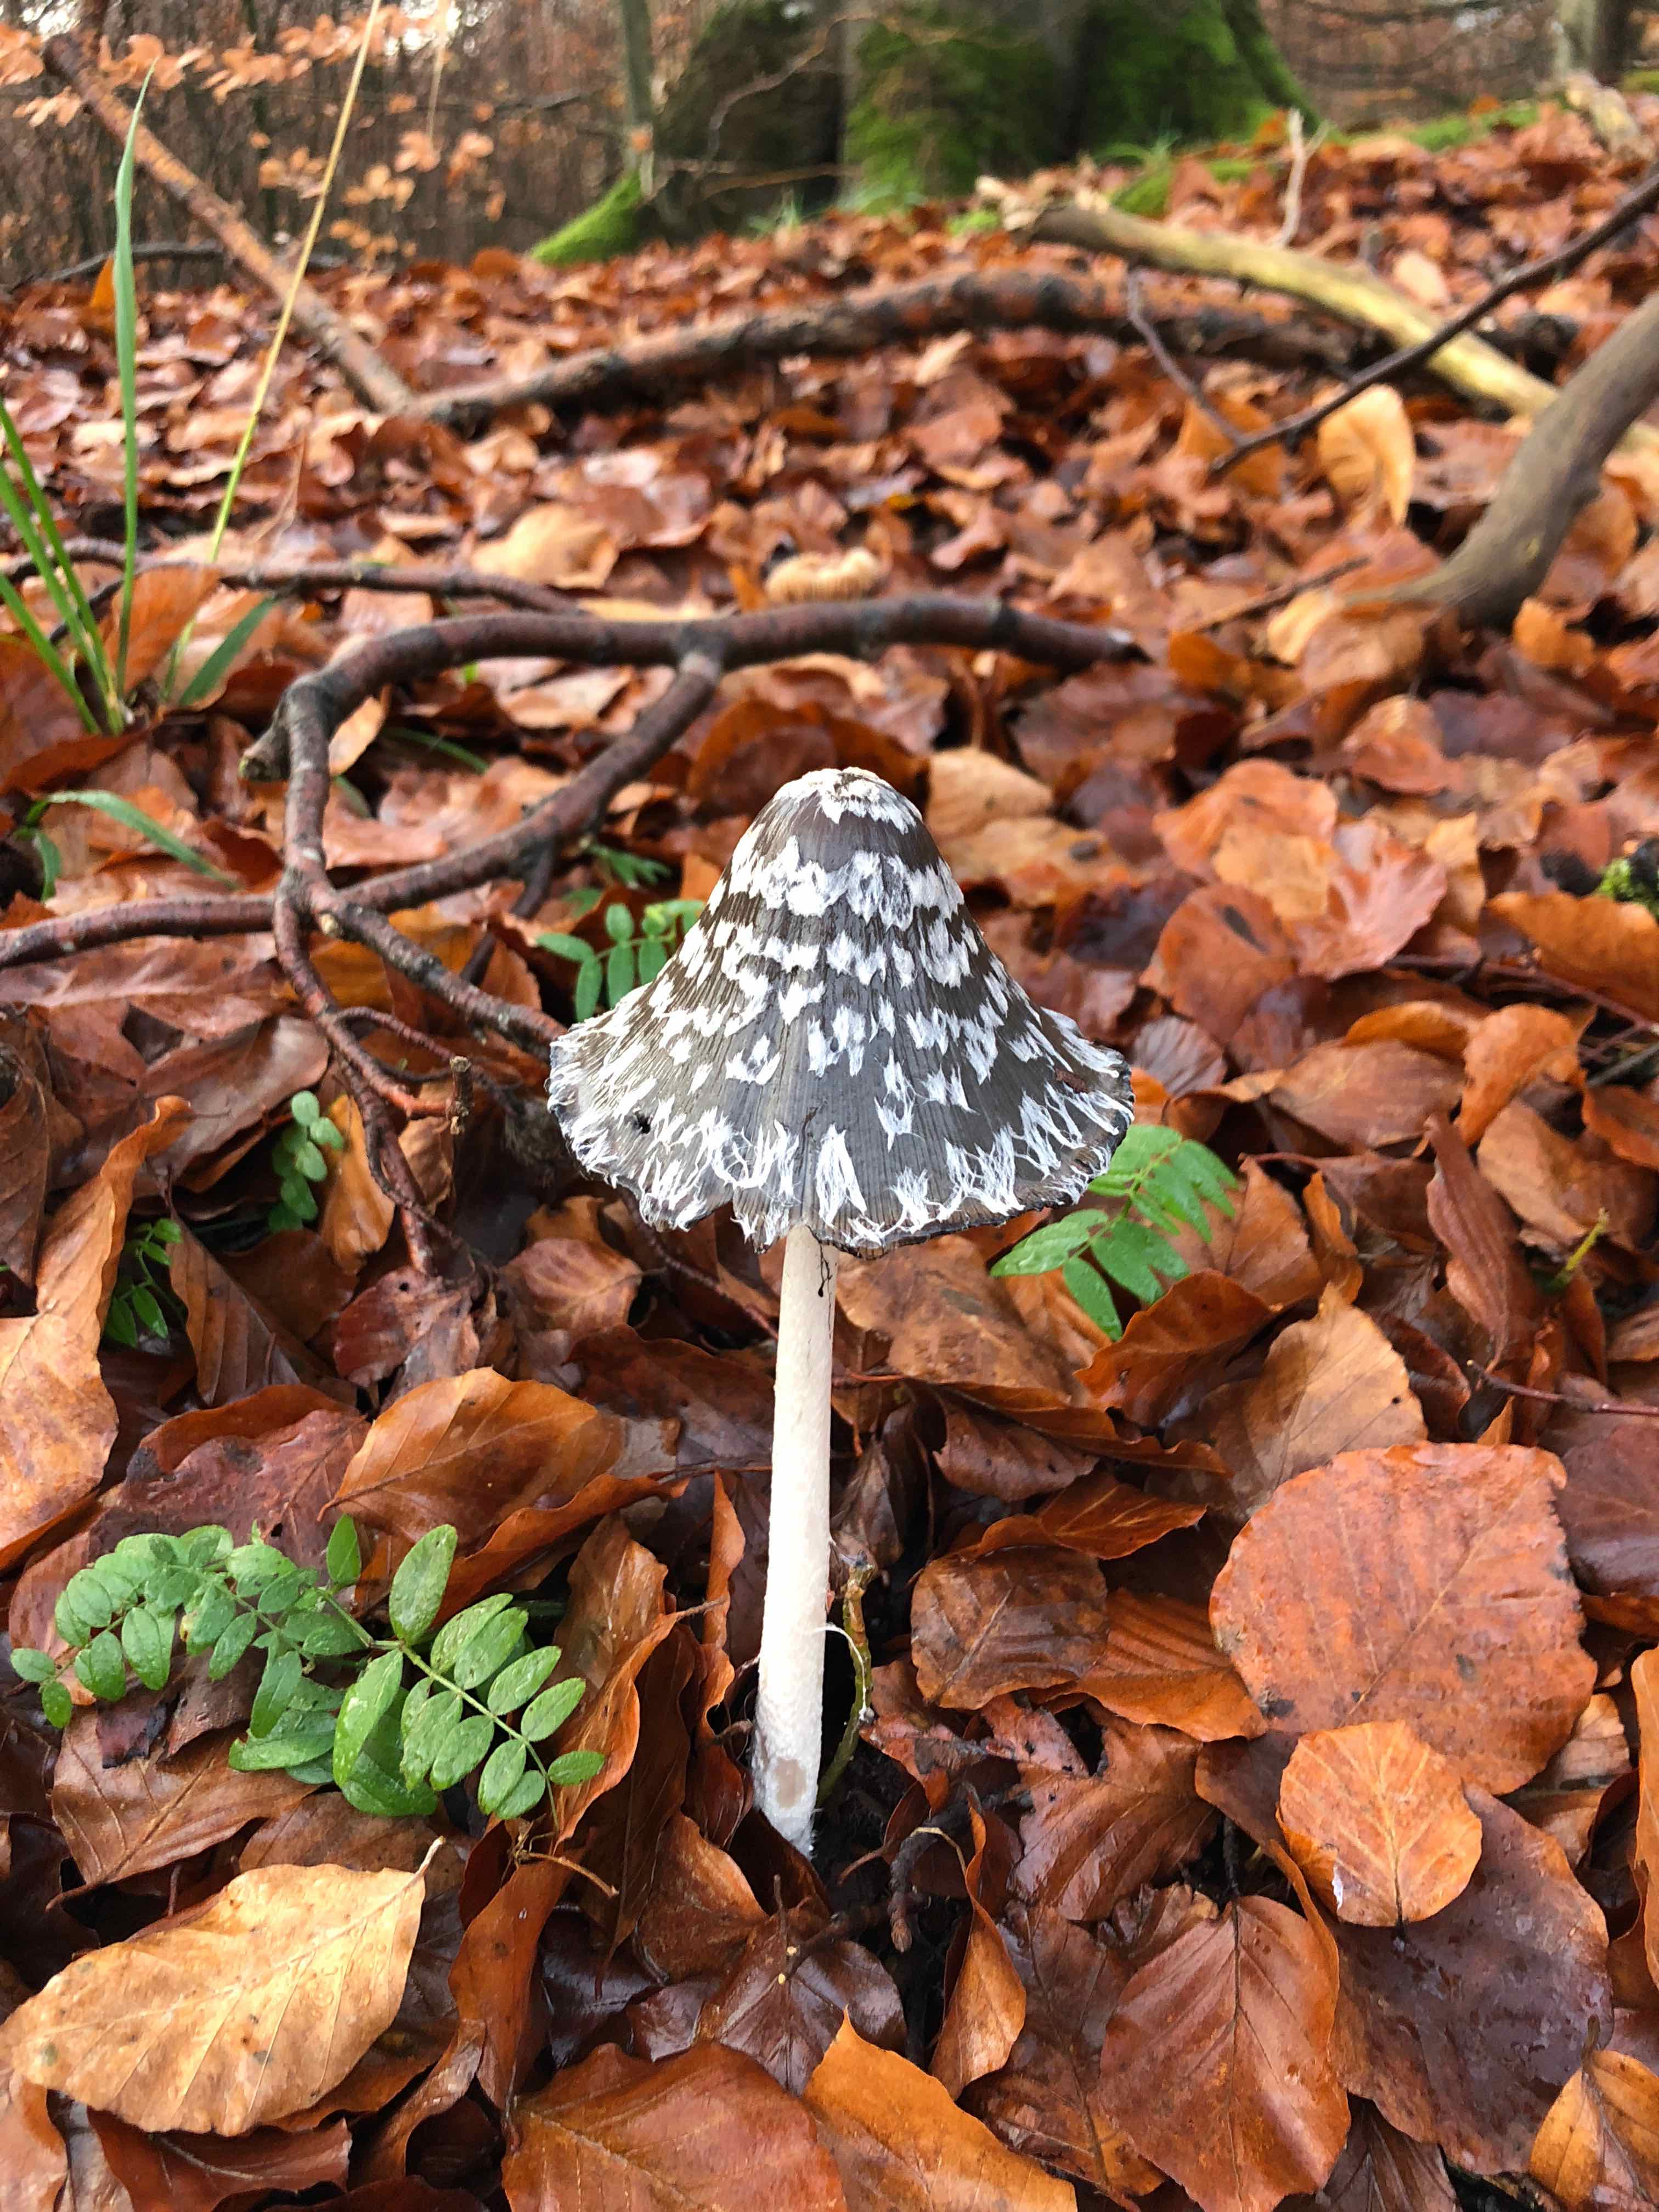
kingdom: Fungi
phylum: Basidiomycota
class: Agaricomycetes
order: Agaricales
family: Psathyrellaceae
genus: Coprinopsis
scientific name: Coprinopsis picacea
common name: skade-blækhat
